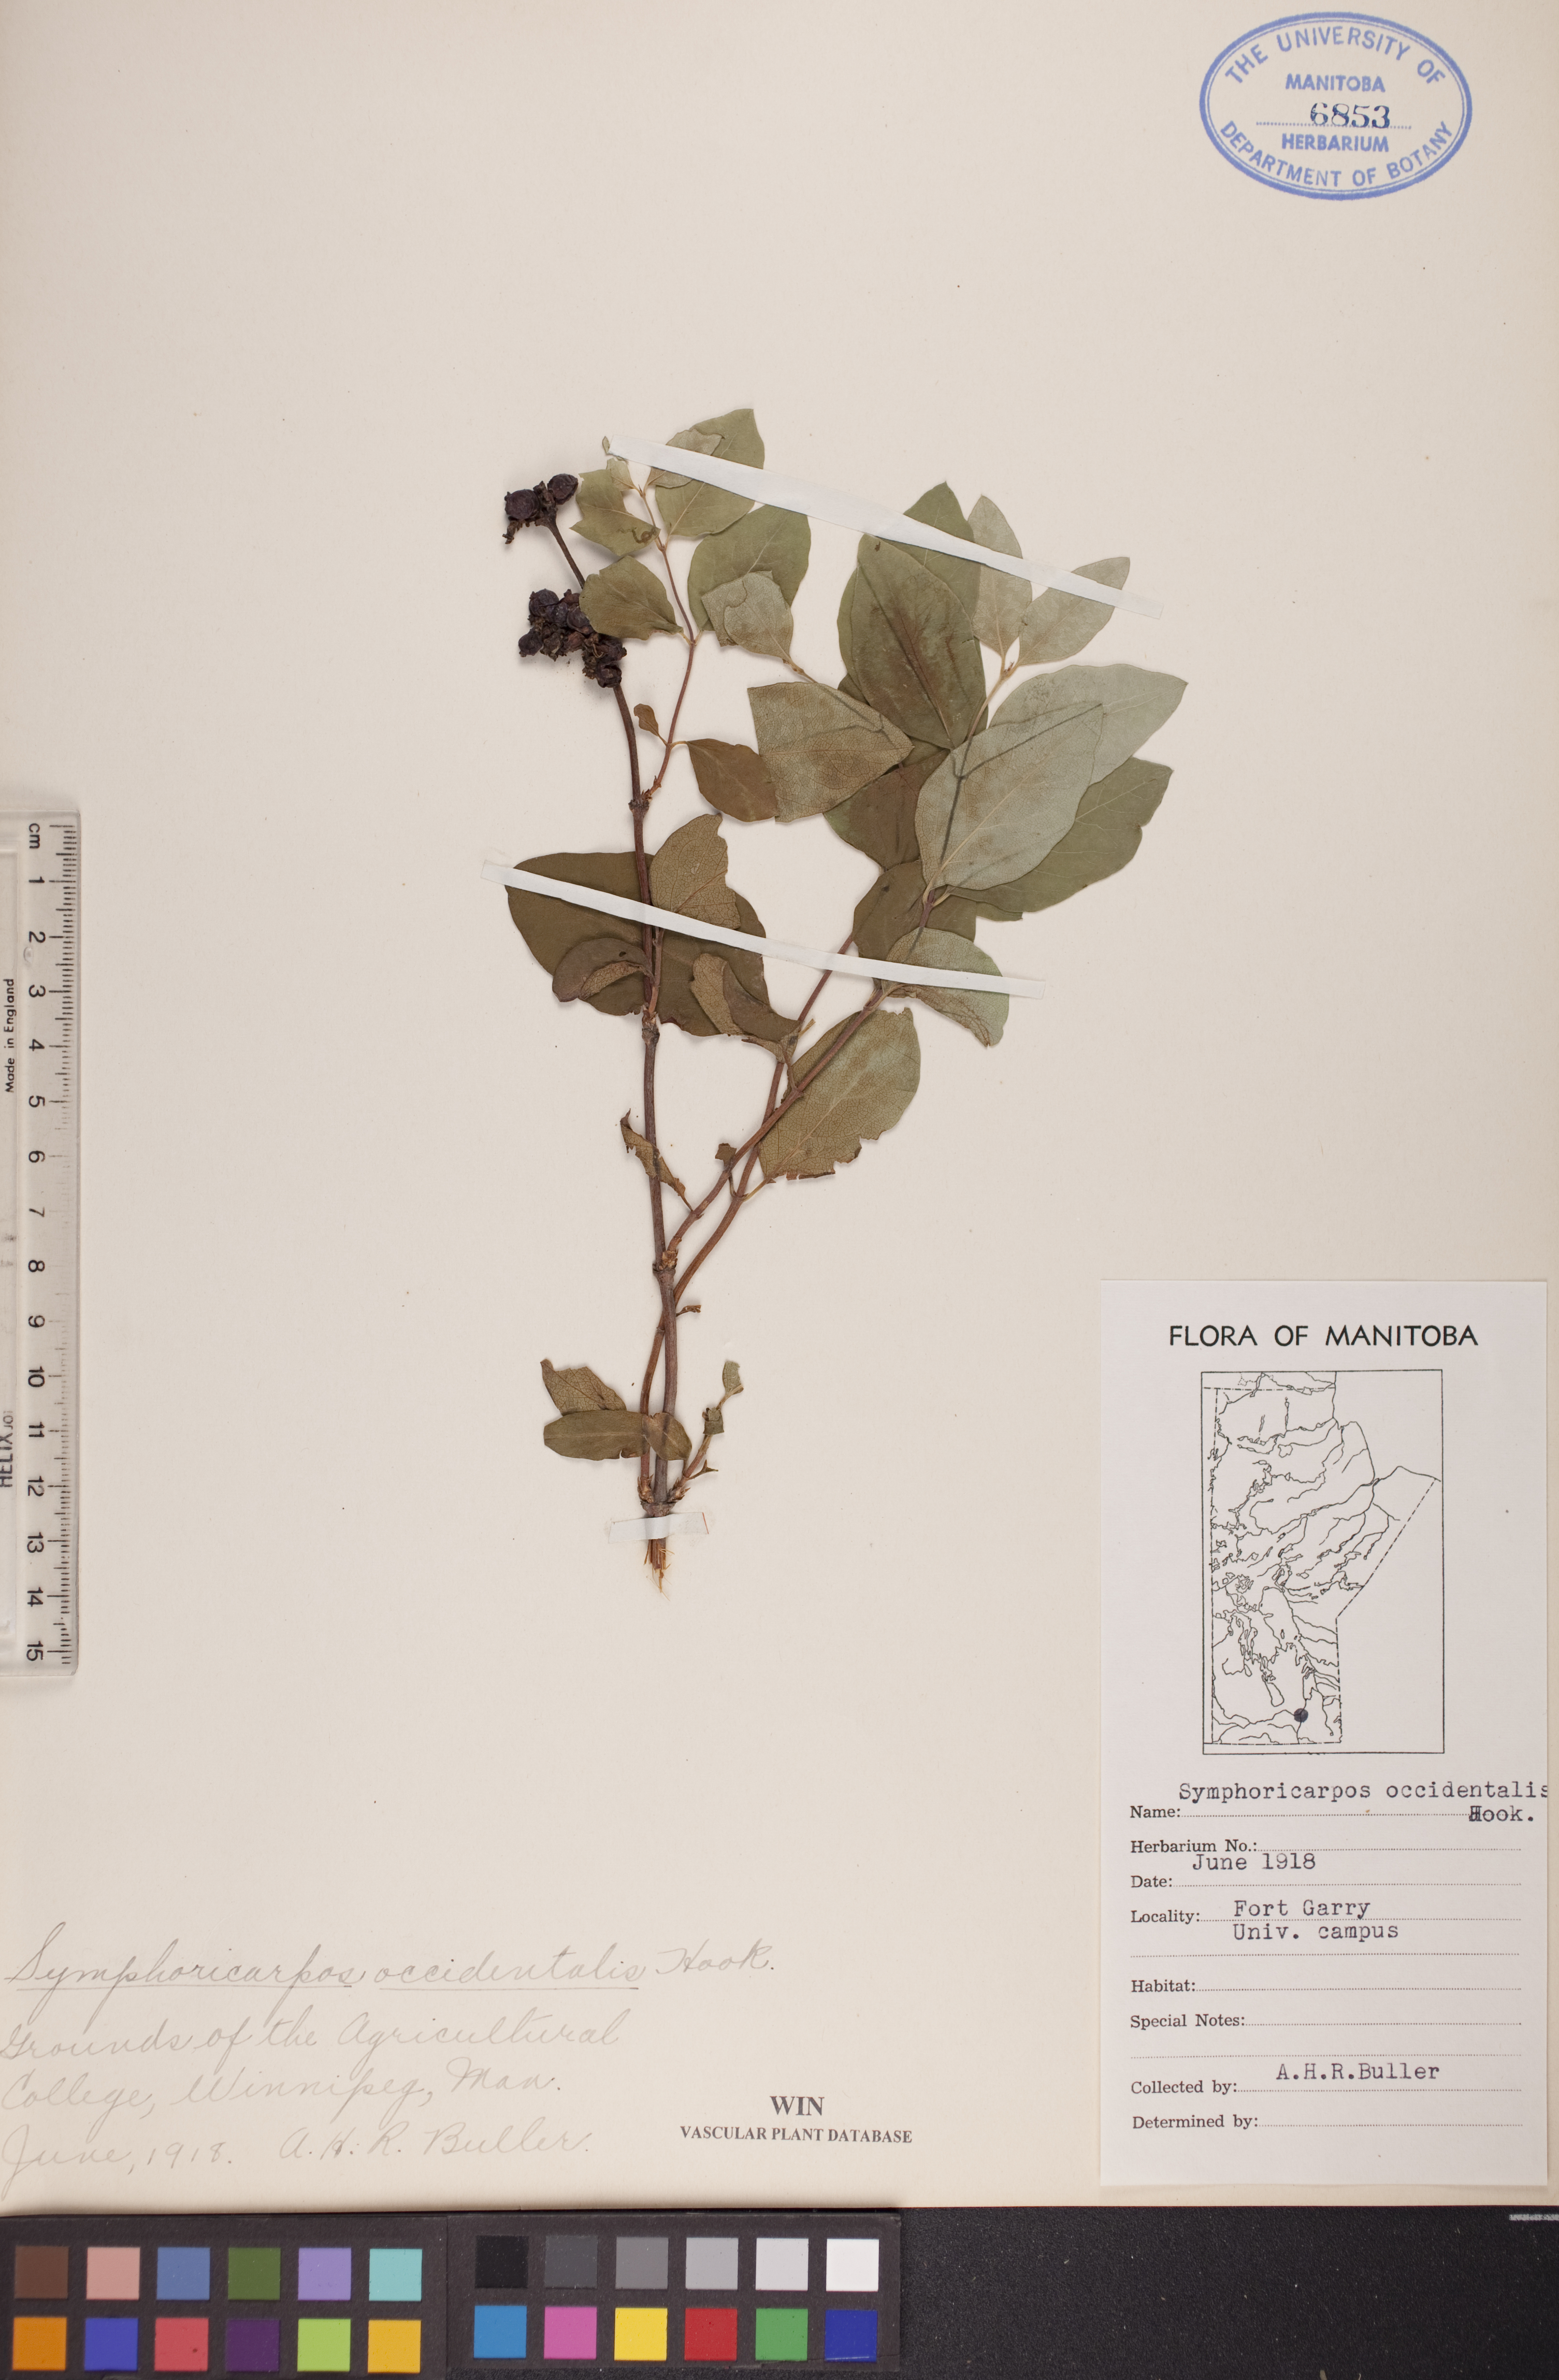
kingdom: Plantae
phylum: Tracheophyta
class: Magnoliopsida
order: Dipsacales
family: Caprifoliaceae
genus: Symphoricarpos
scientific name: Symphoricarpos occidentalis
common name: Wolfberry
